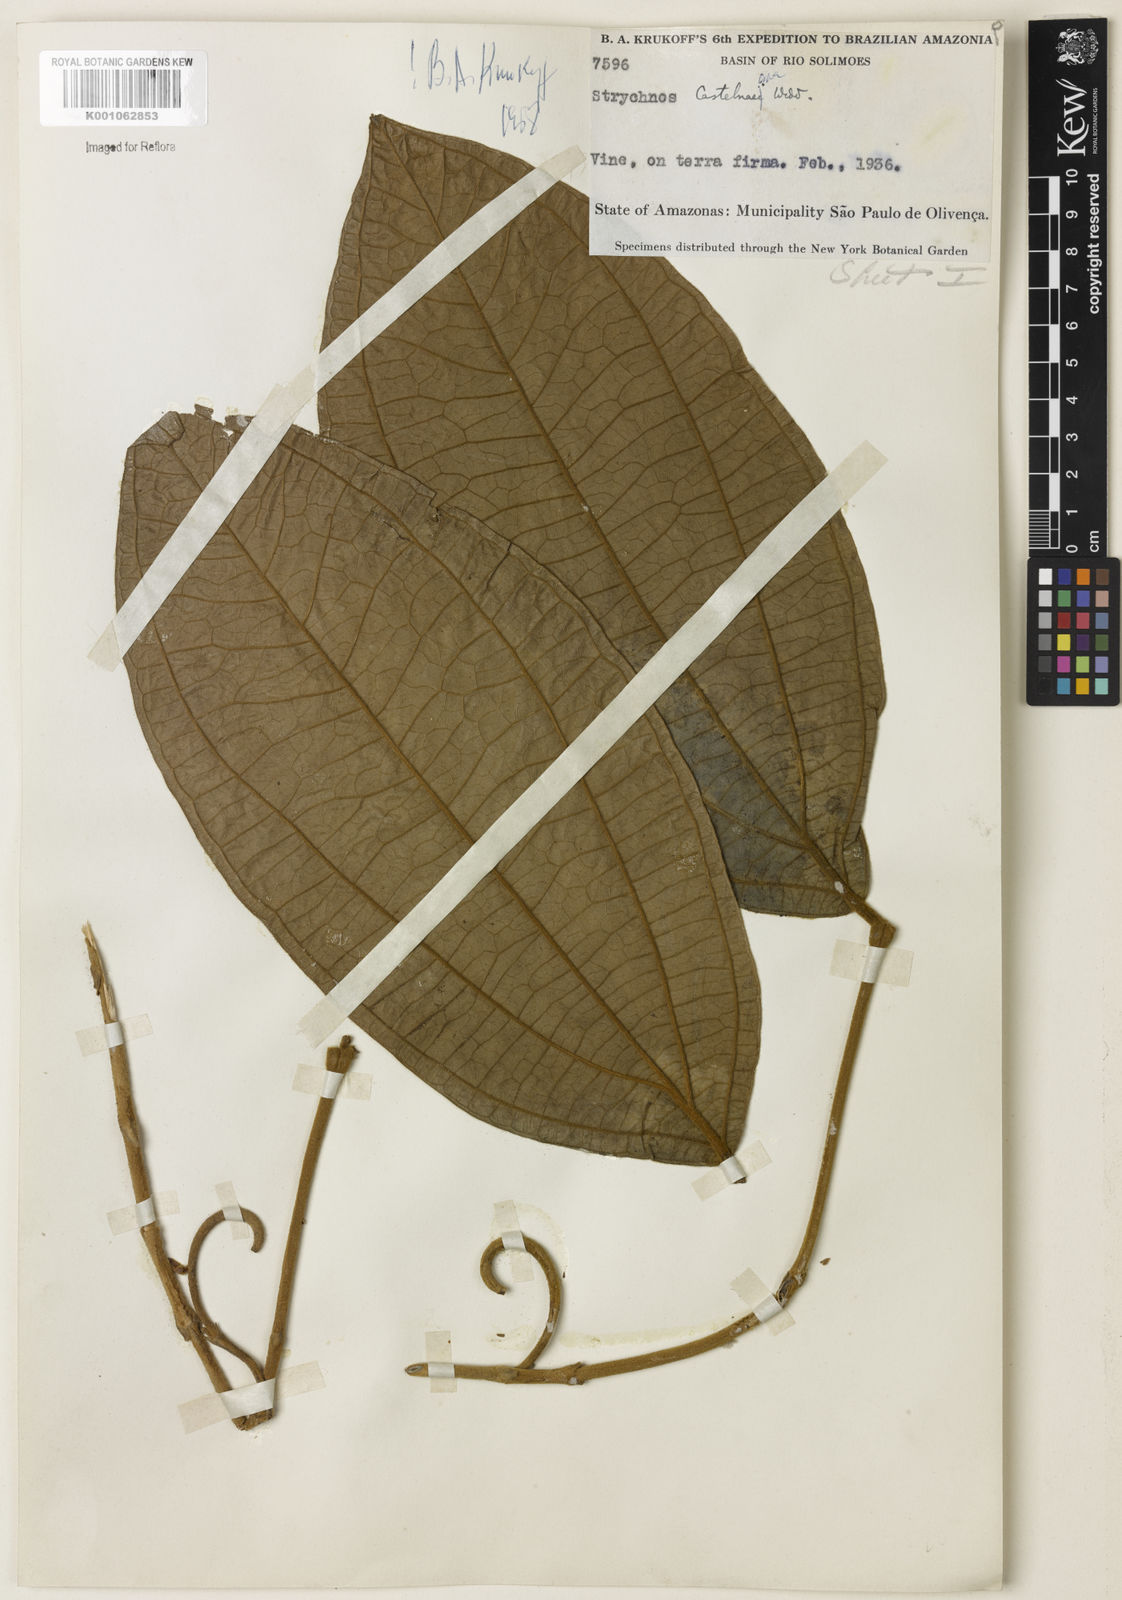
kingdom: Plantae
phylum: Tracheophyta
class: Magnoliopsida
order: Gentianales
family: Loganiaceae
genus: Strychnos
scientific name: Strychnos
